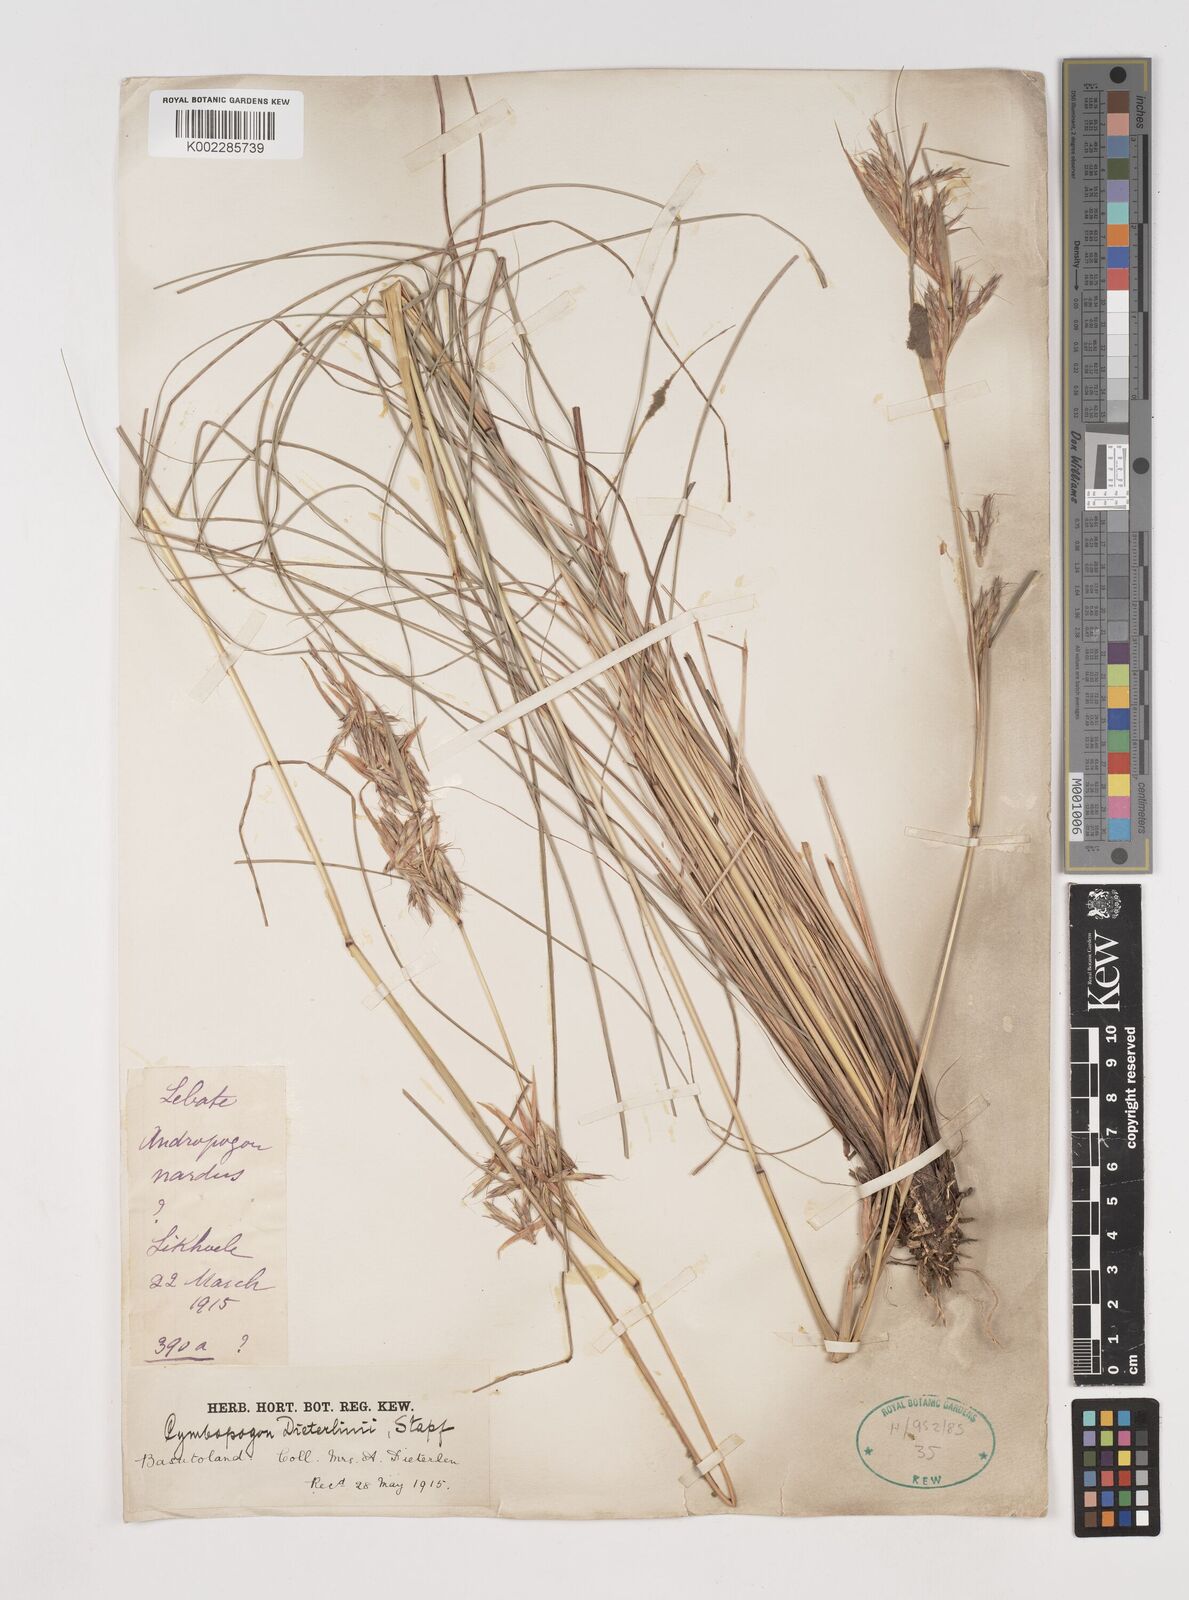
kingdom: Plantae
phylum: Tracheophyta
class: Liliopsida
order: Poales
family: Poaceae
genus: Cymbopogon
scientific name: Cymbopogon dieterlenii
